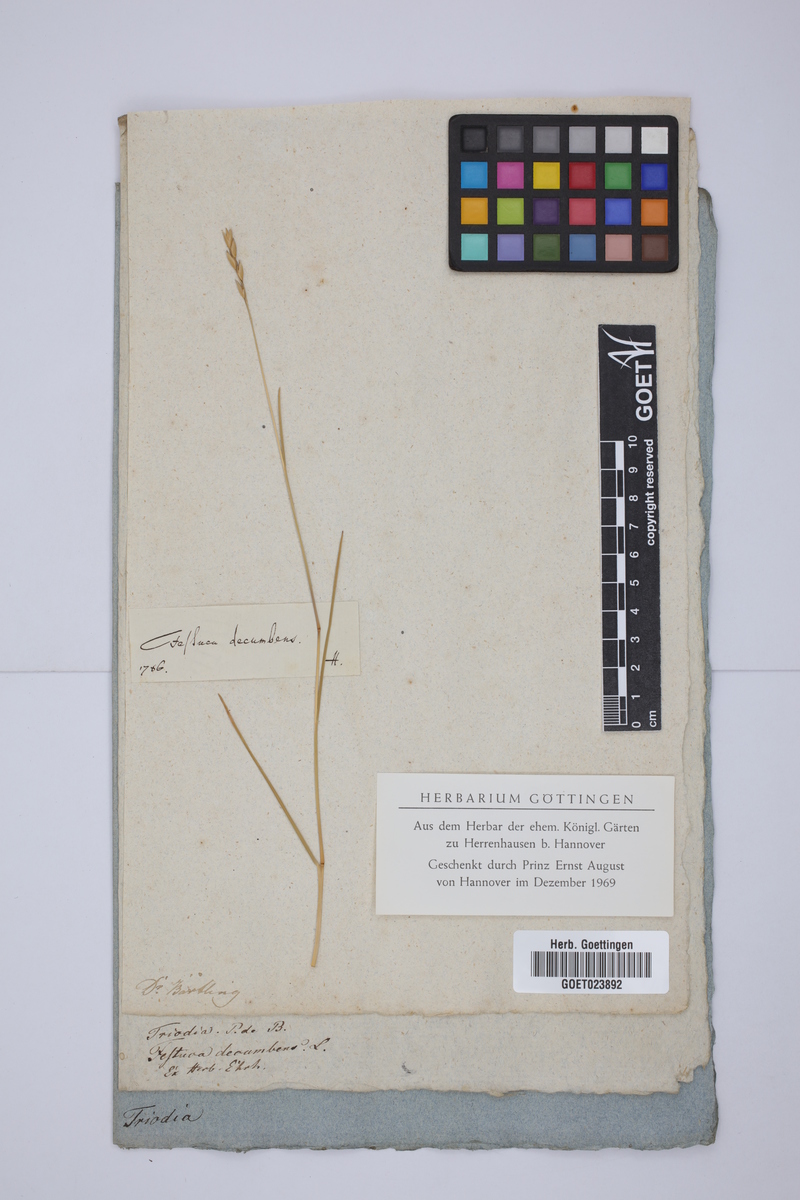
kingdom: Plantae
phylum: Tracheophyta
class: Liliopsida
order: Poales
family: Poaceae
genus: Danthonia
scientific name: Danthonia decumbens
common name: Common heathgrass
